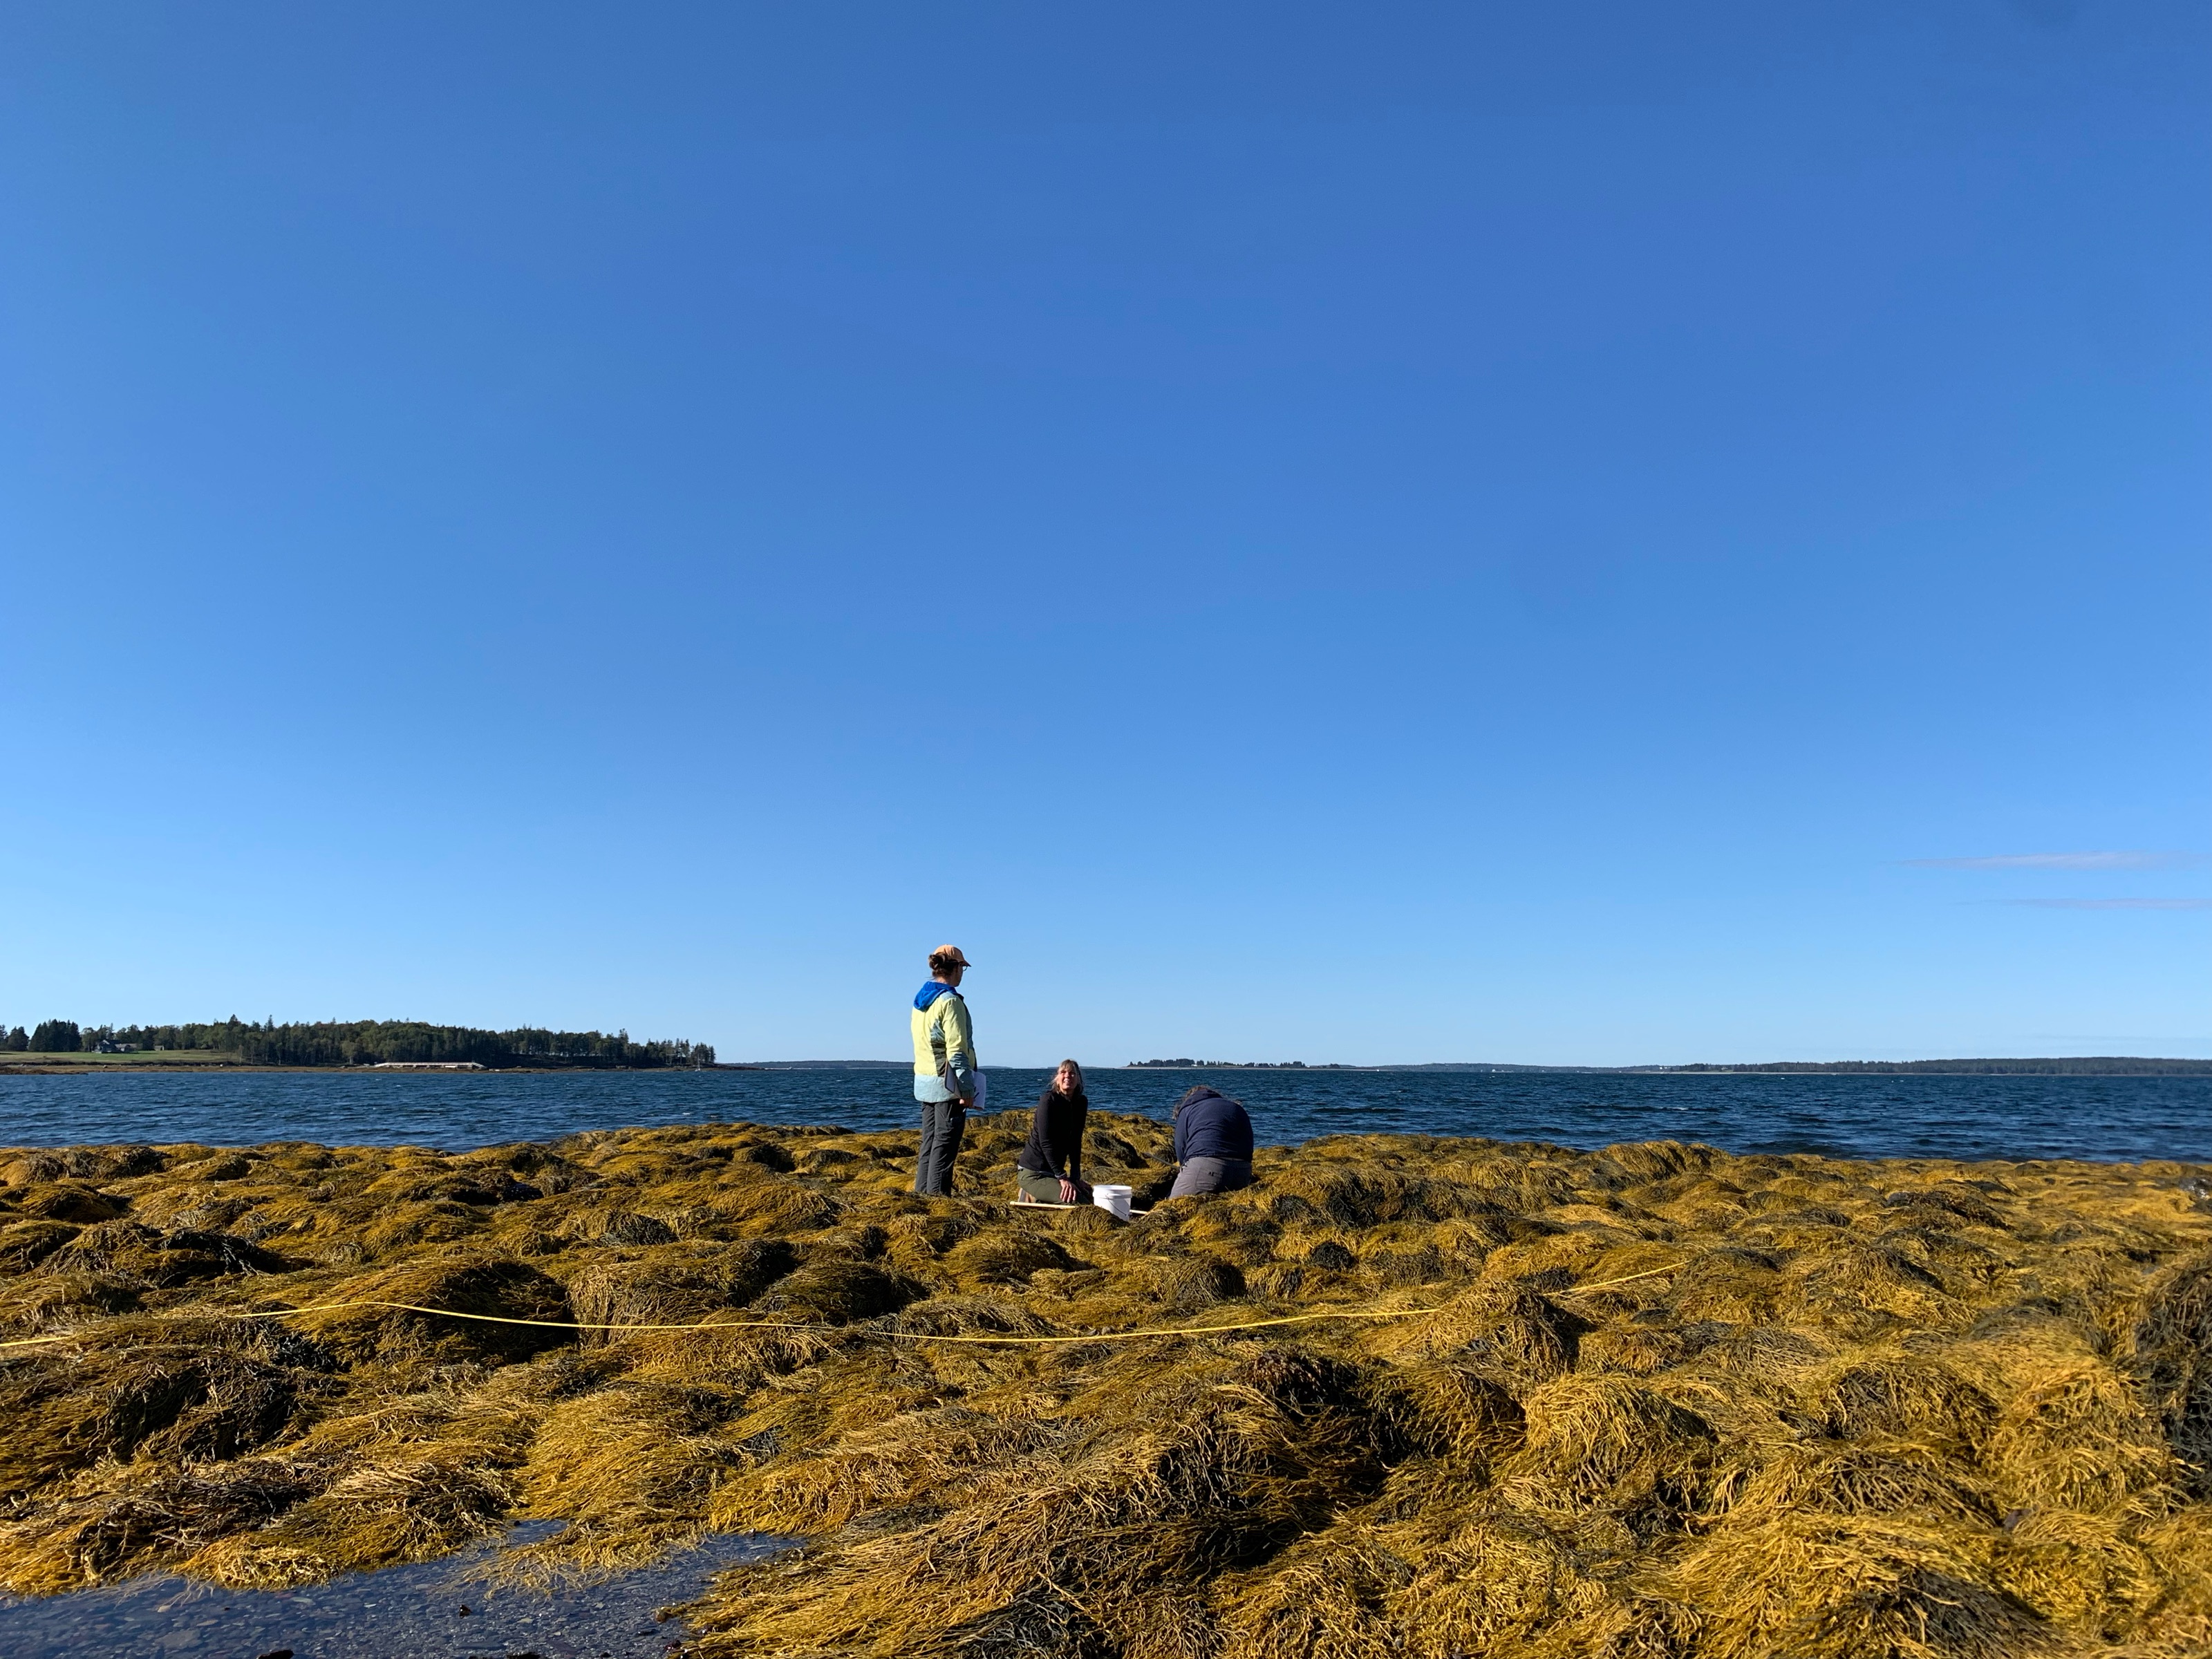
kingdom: Chromista
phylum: Ochrophyta
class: Phaeophyceae
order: Fucales
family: Fucaceae
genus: Ascophyllum
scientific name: Ascophyllum nodosum
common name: Rockweed
